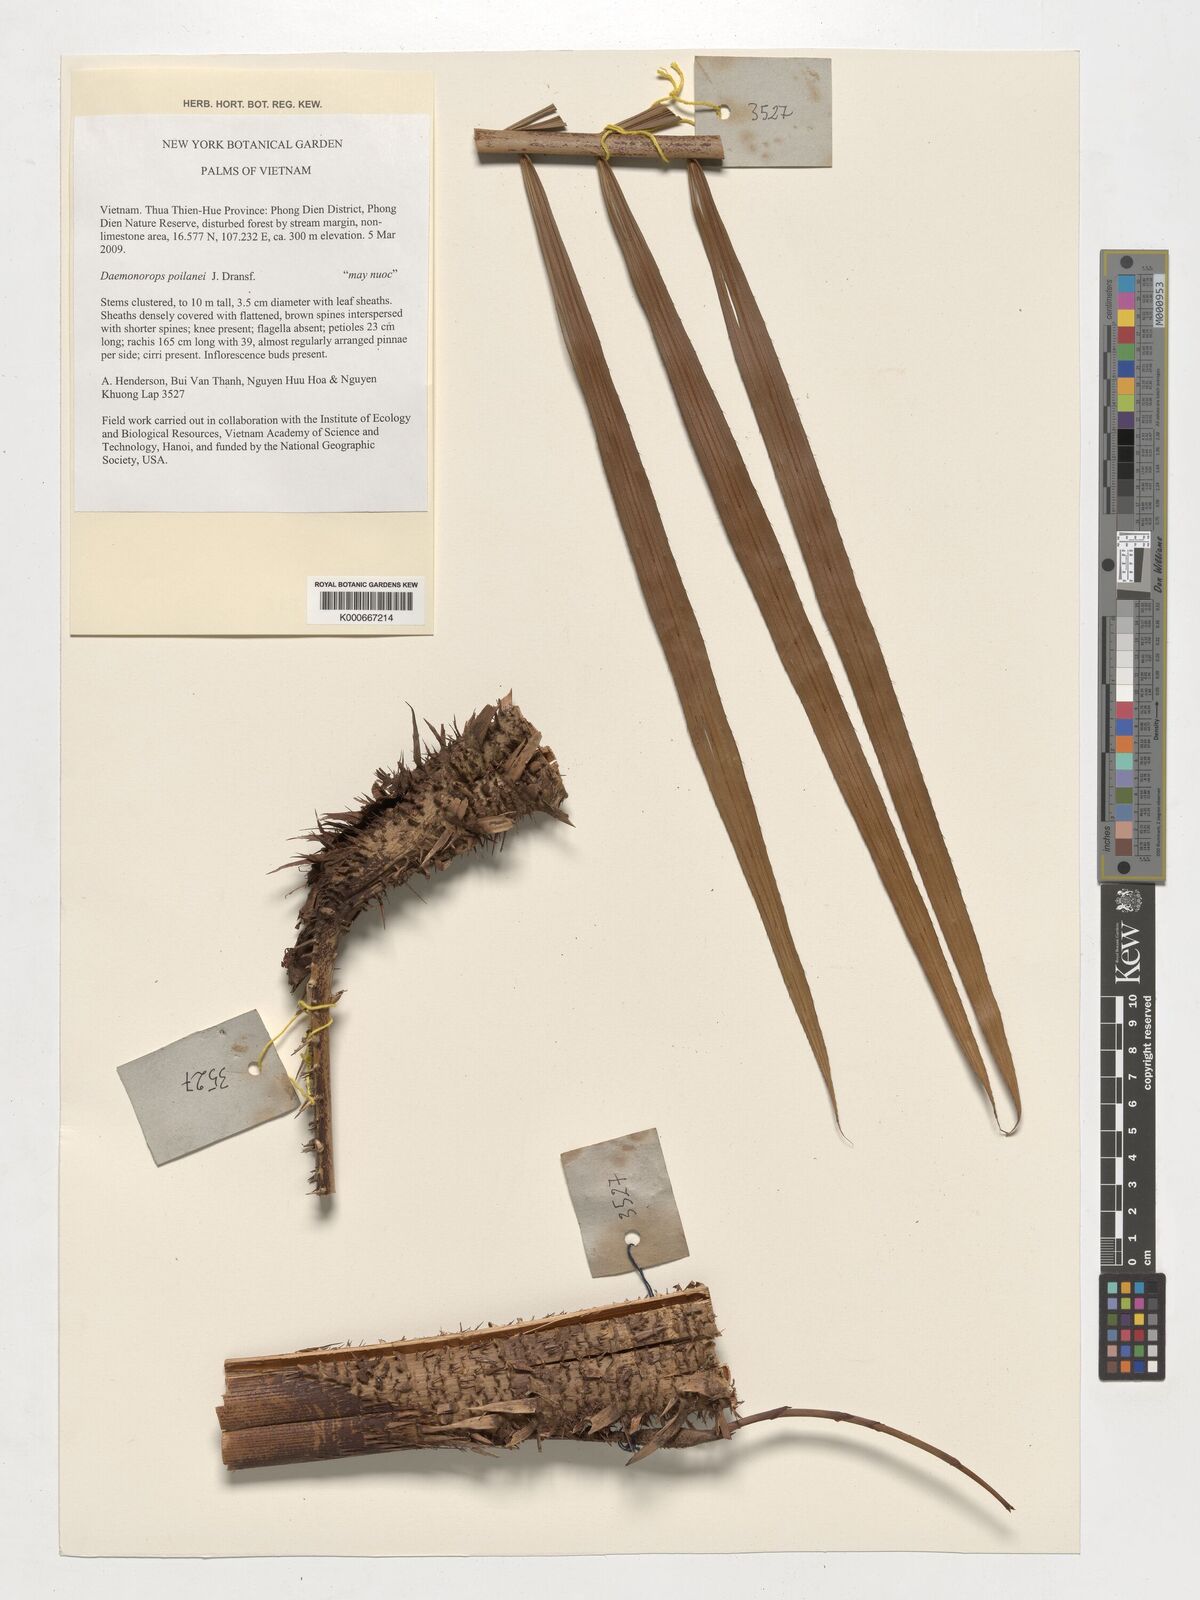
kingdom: Plantae
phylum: Tracheophyta
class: Liliopsida
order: Arecales
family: Arecaceae
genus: Calamus
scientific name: Calamus eugenei
